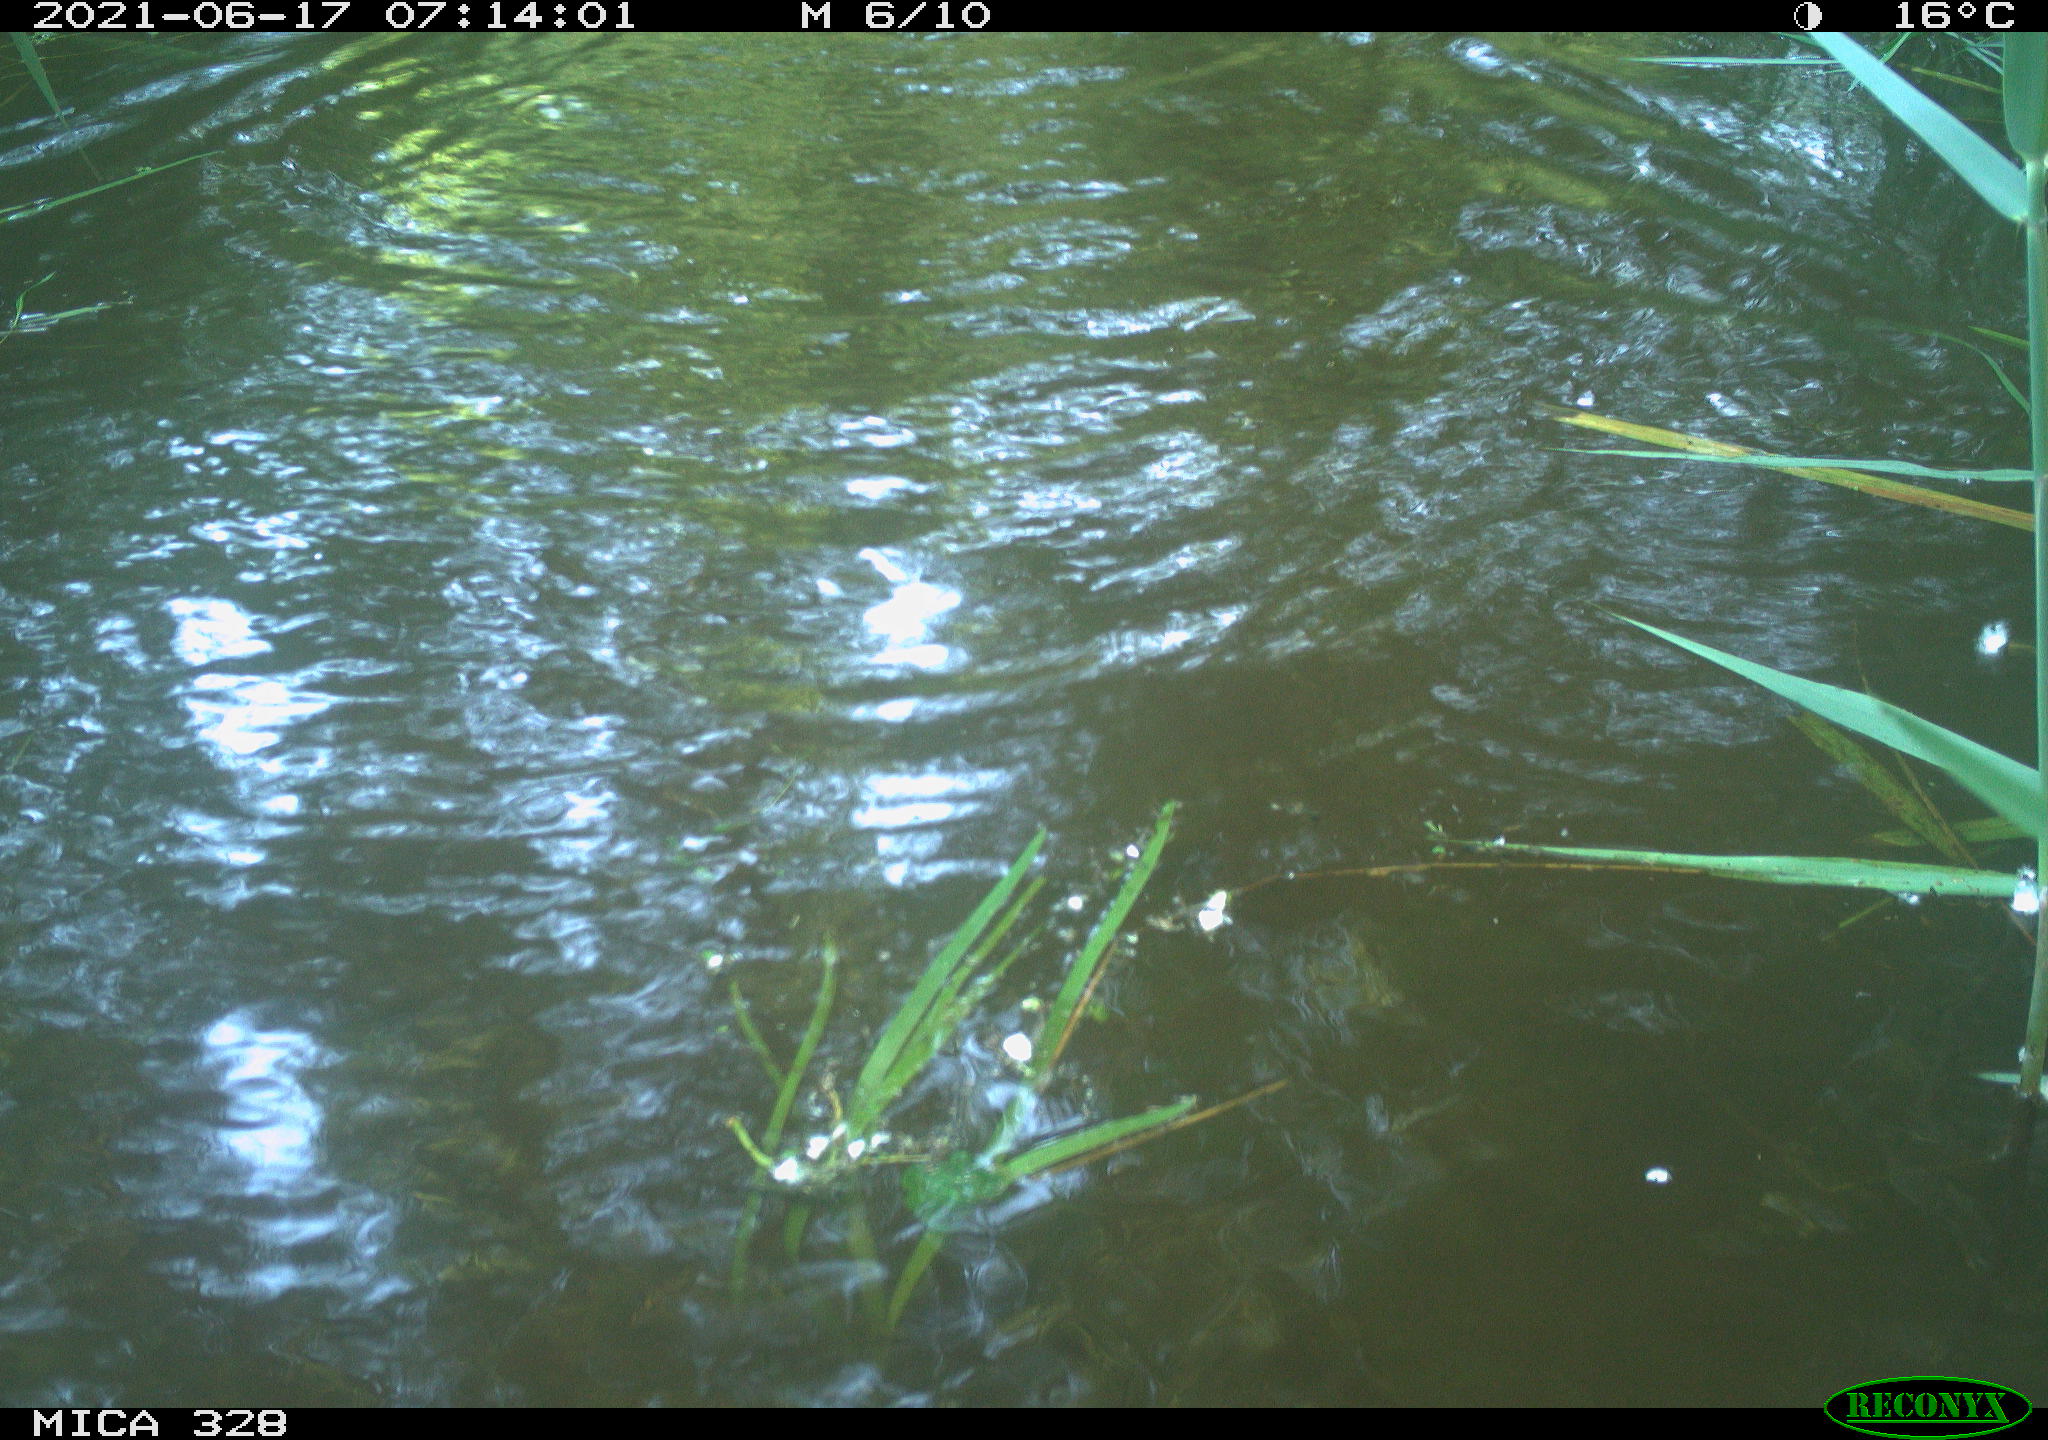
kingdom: Animalia
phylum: Chordata
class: Mammalia
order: Rodentia
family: Cricetidae
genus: Ondatra
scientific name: Ondatra zibethicus
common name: Muskrat
